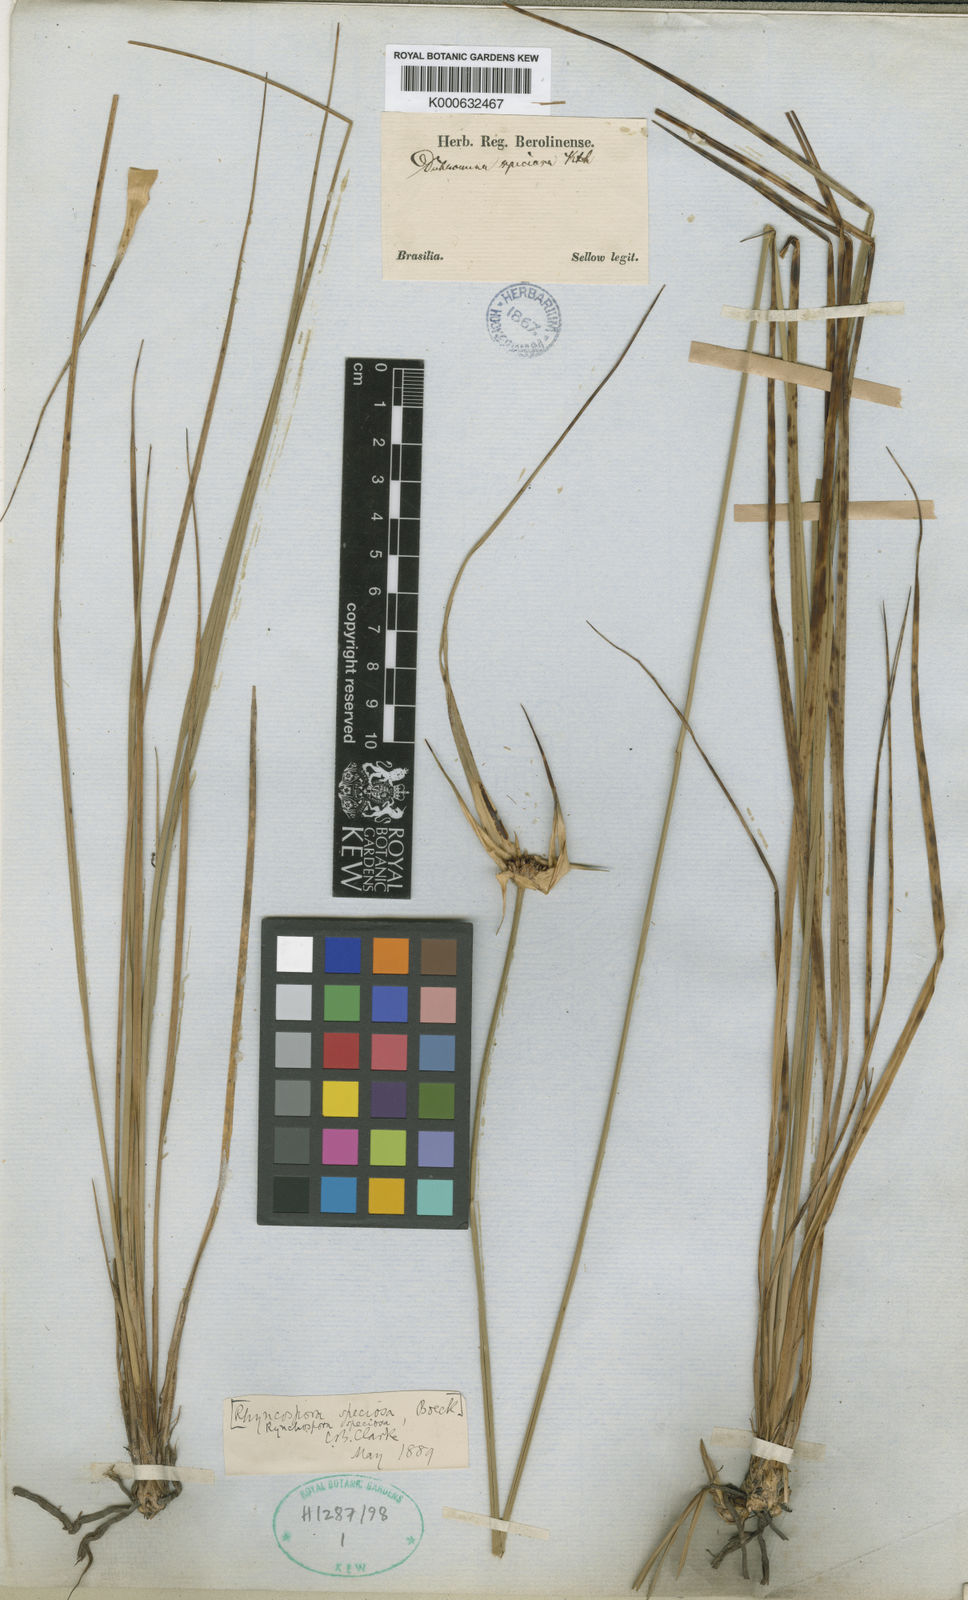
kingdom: Plantae
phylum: Tracheophyta
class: Liliopsida
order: Poales
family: Cyperaceae
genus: Rhynchospora
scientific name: Rhynchospora speciosa
